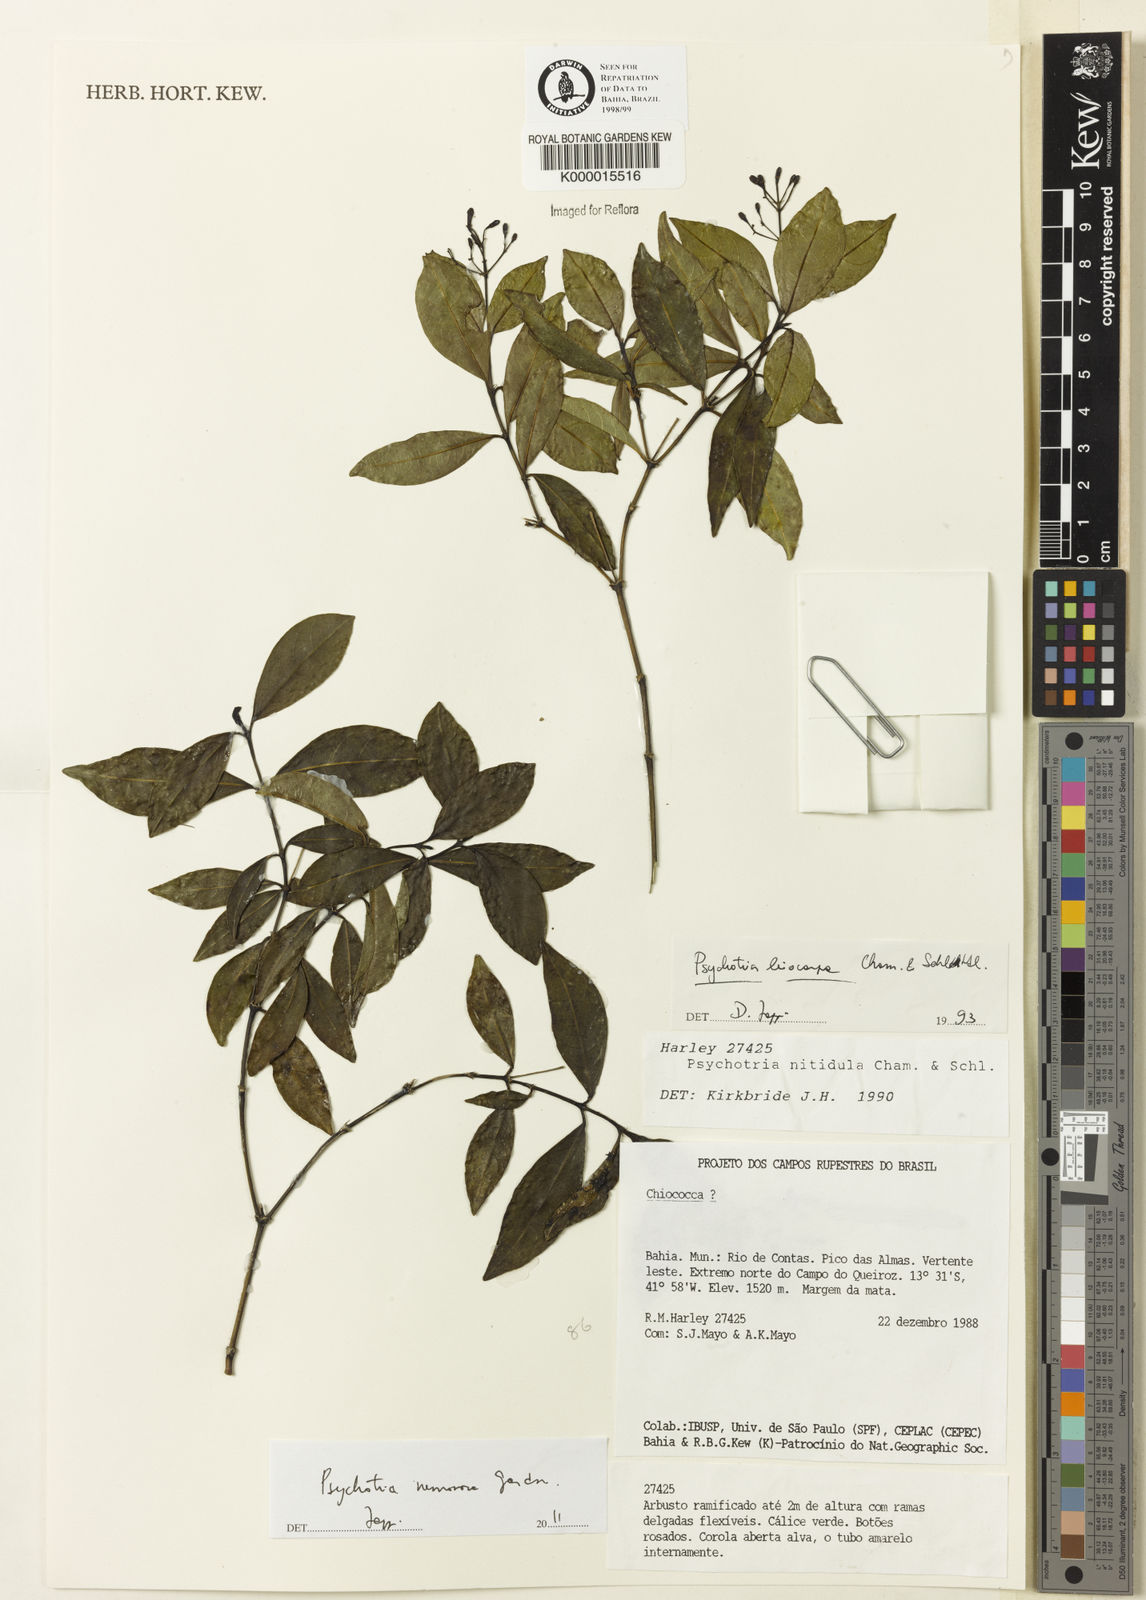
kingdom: Plantae
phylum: Tracheophyta
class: Magnoliopsida
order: Gentianales
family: Rubiaceae
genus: Psychotria
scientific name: Psychotria nemorosa
